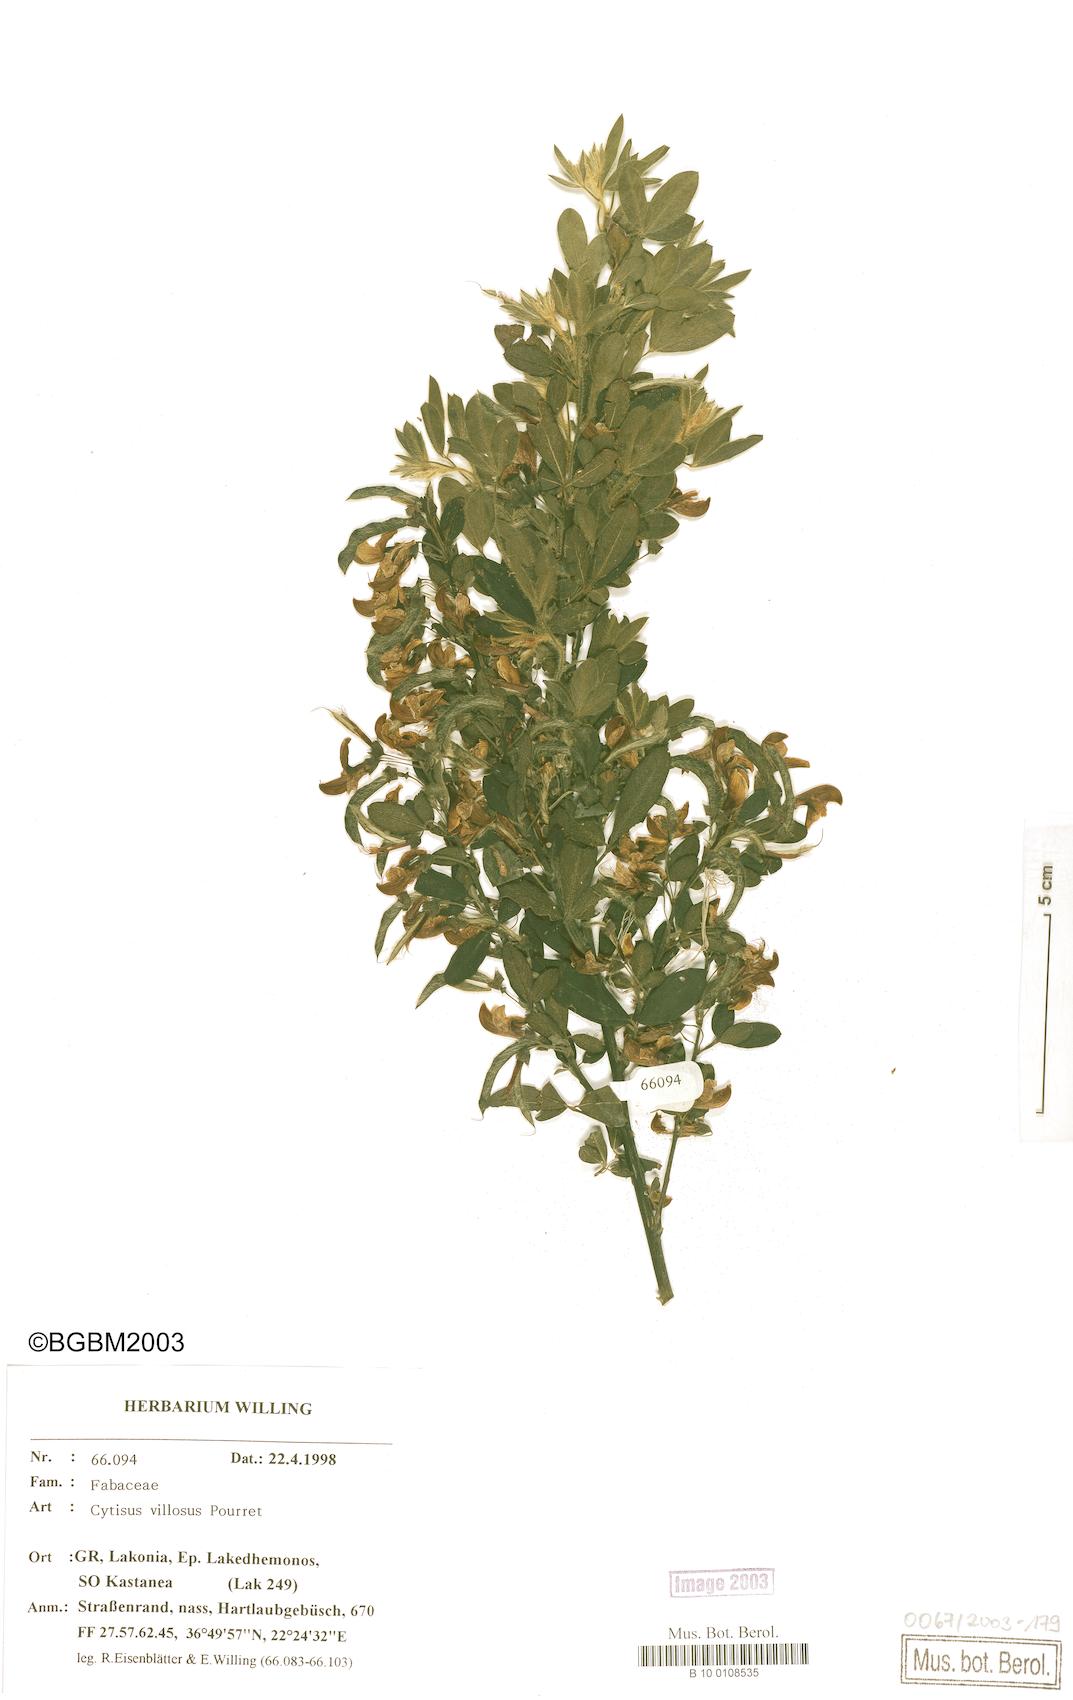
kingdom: Plantae
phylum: Tracheophyta
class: Magnoliopsida
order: Fabales
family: Fabaceae
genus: Cytisus
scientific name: Cytisus villosus
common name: Hairybroom
